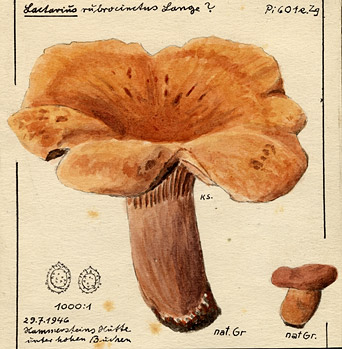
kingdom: Fungi
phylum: Basidiomycota
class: Agaricomycetes
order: Russulales
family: Russulaceae
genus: Lactarius
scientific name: Lactarius fulvissimus
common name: Tawny milkcap
